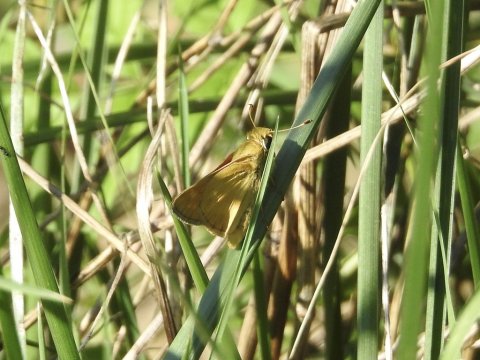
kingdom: Animalia
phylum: Arthropoda
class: Insecta
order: Lepidoptera
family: Hesperiidae
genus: Atalopedes
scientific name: Atalopedes
